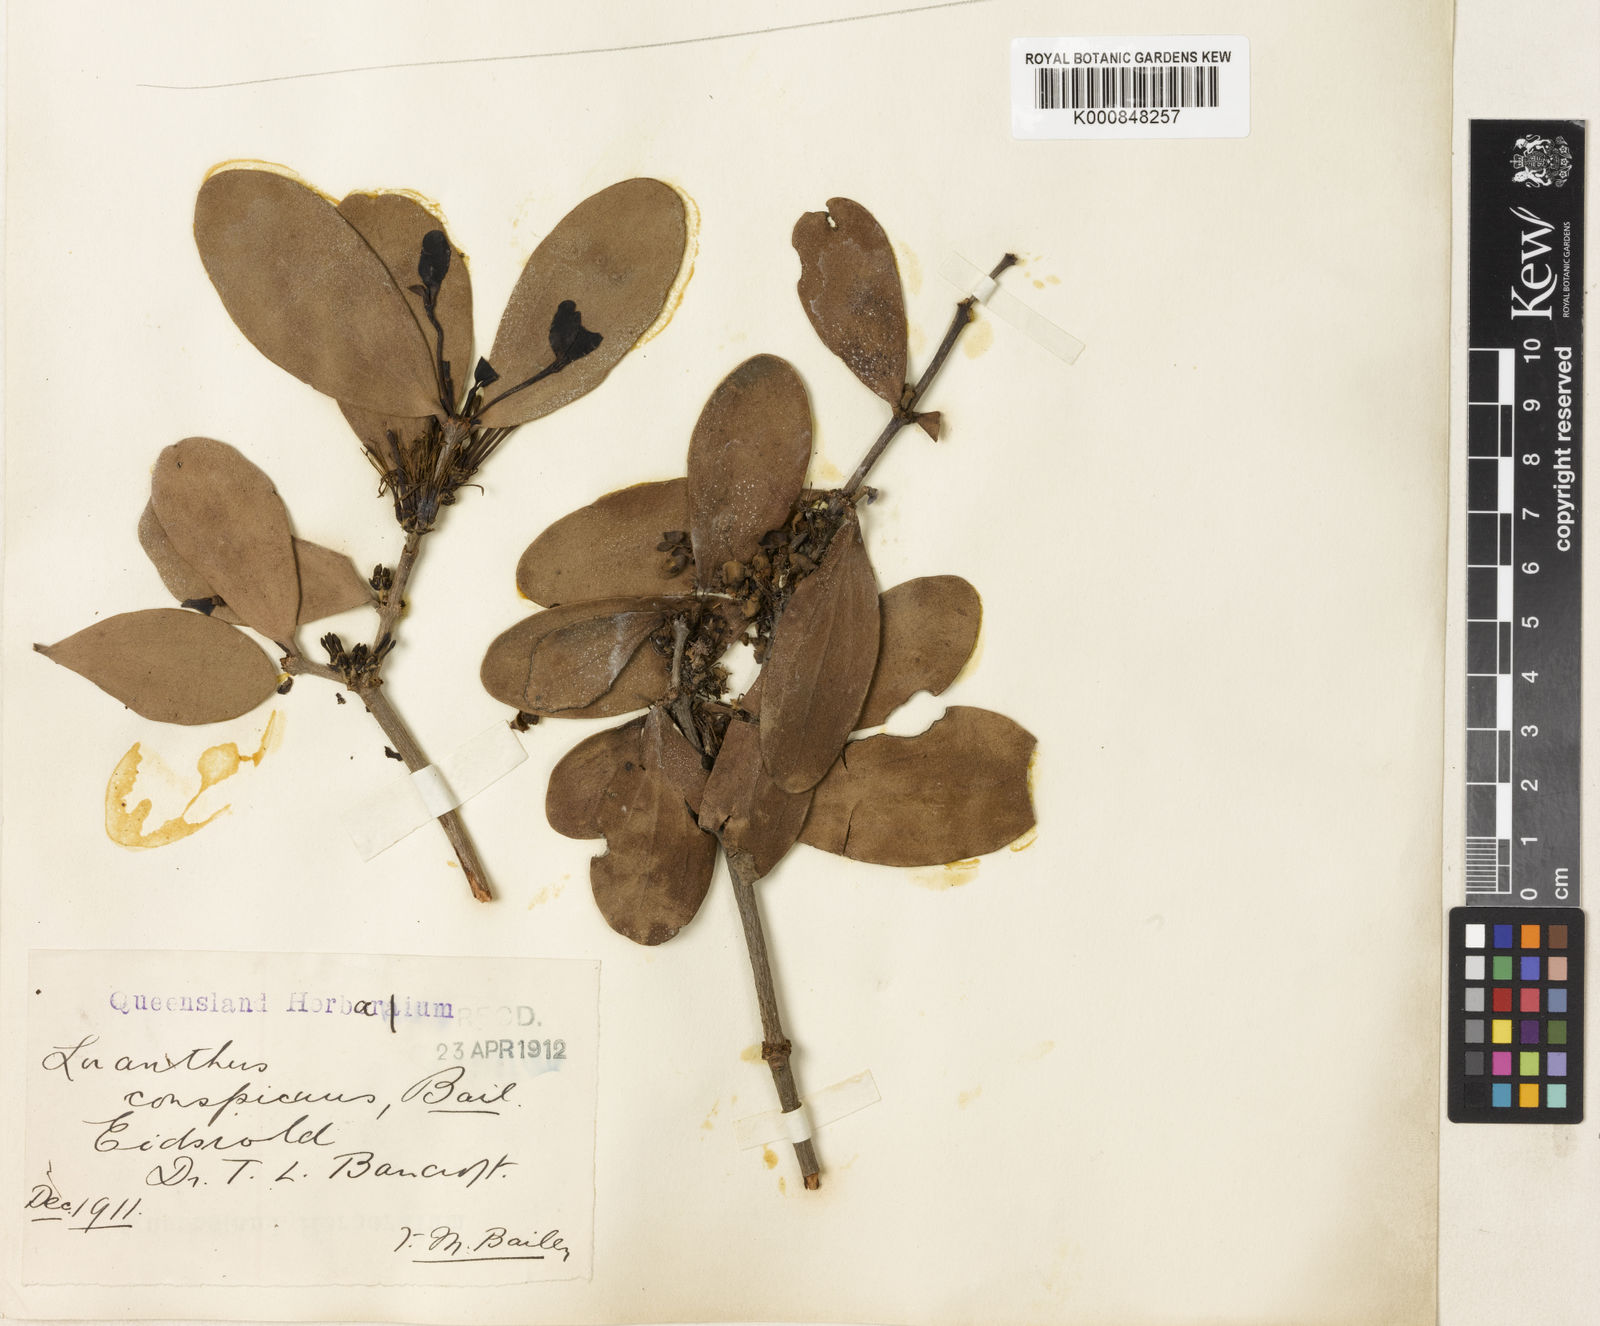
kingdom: Plantae
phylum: Tracheophyta
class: Magnoliopsida
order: Santalales
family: Loranthaceae
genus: Amyema
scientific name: Amyema conspicua
